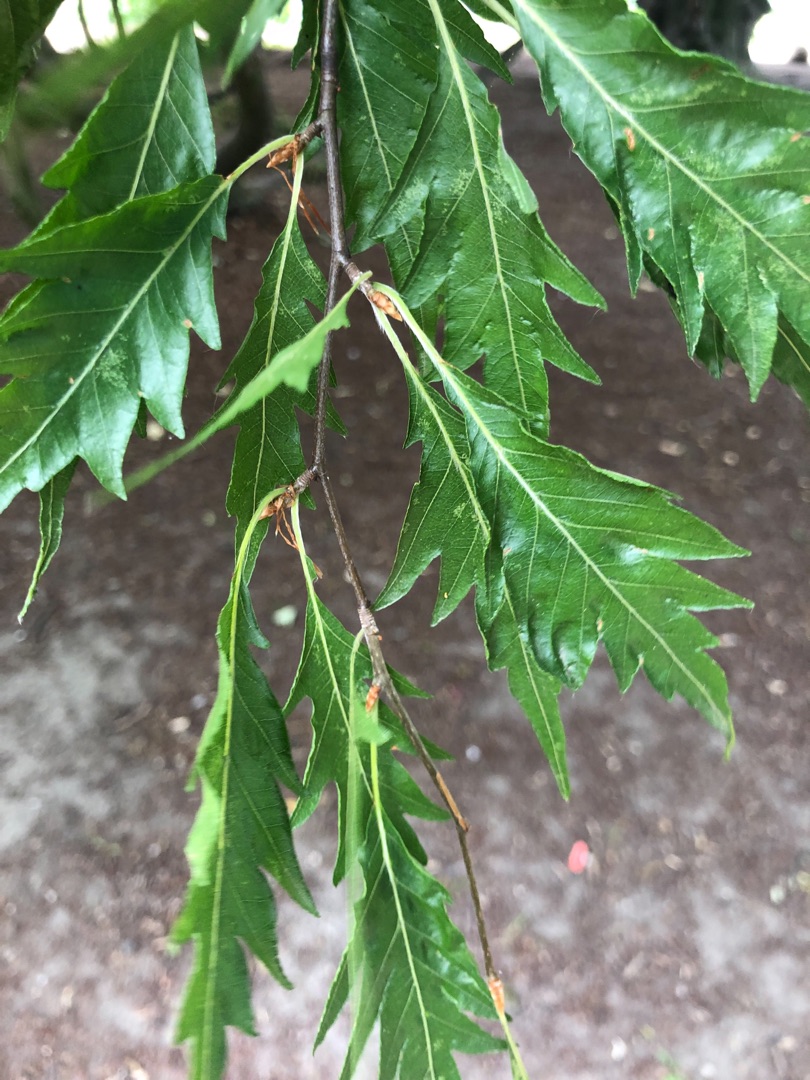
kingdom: Plantae
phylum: Tracheophyta
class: Magnoliopsida
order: Fagales
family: Fagaceae
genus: Fagus
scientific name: Fagus sylvatica
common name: Bøg
